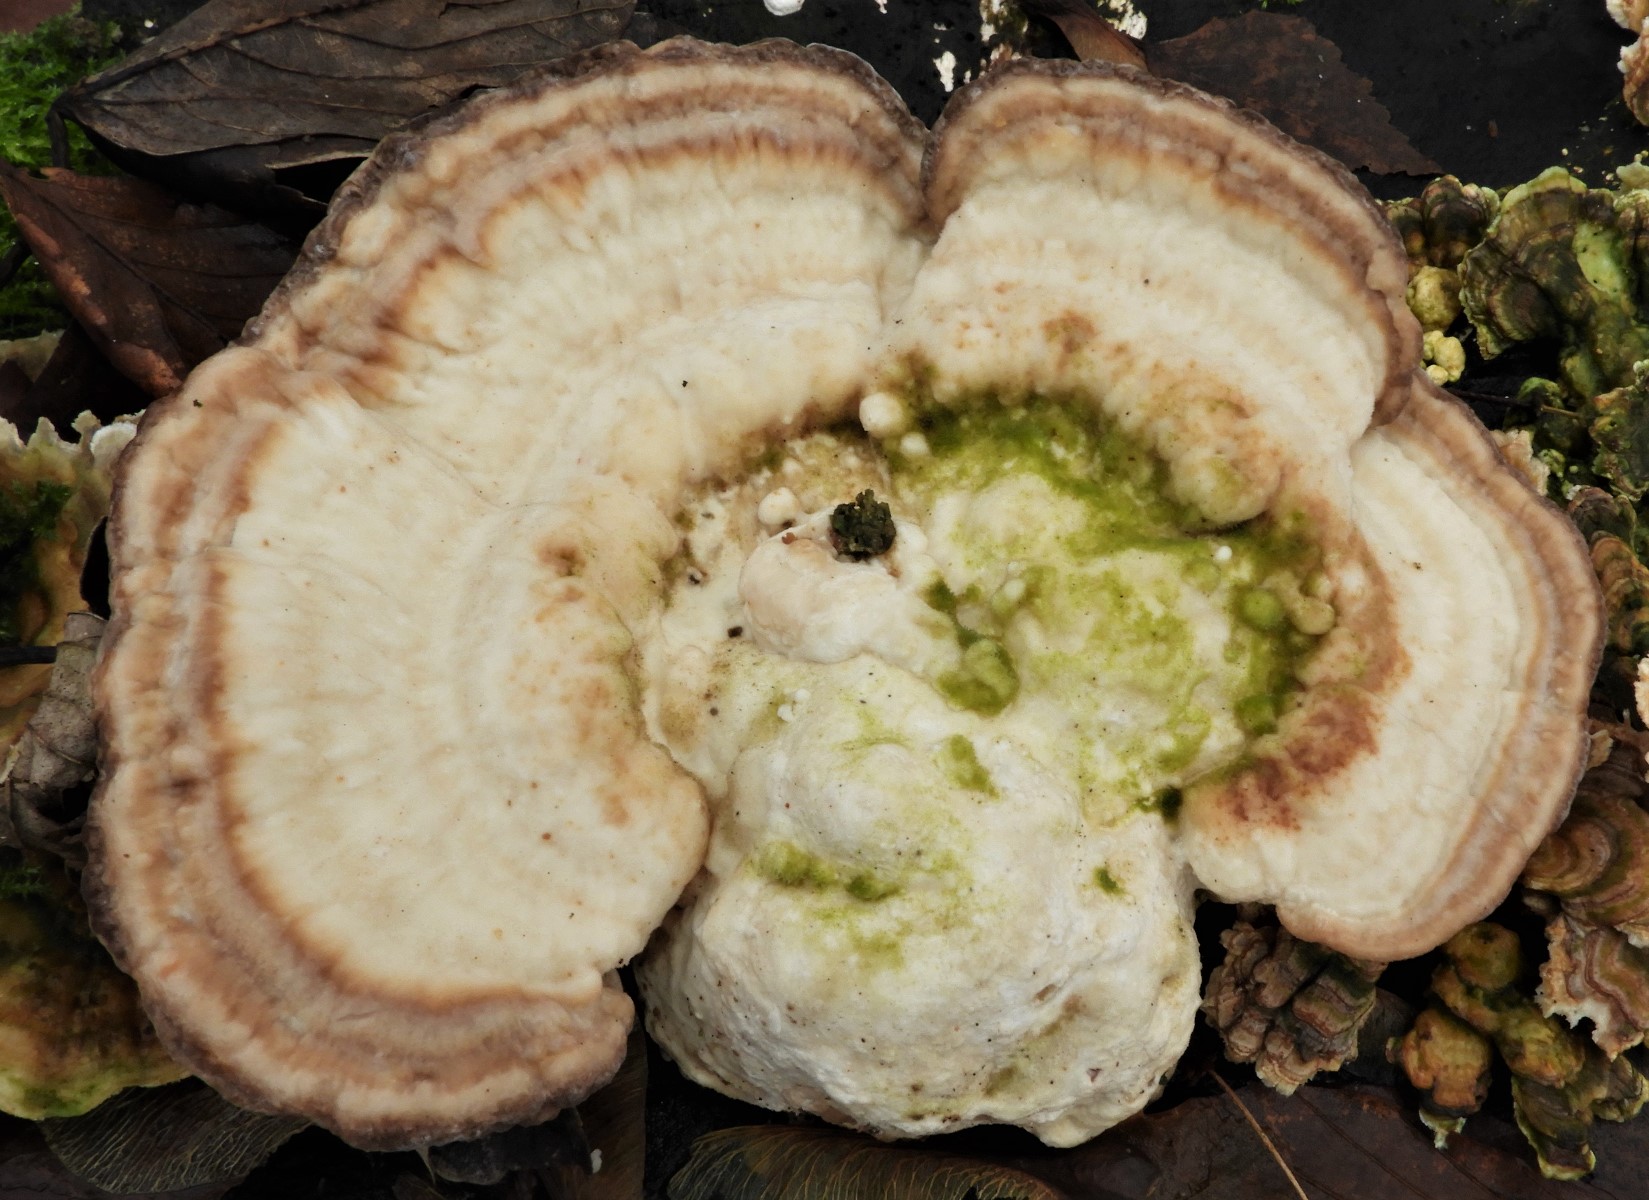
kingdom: Fungi
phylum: Basidiomycota
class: Agaricomycetes
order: Polyporales
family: Polyporaceae
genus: Trametes
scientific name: Trametes gibbosa
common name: puklet læderporesvamp
